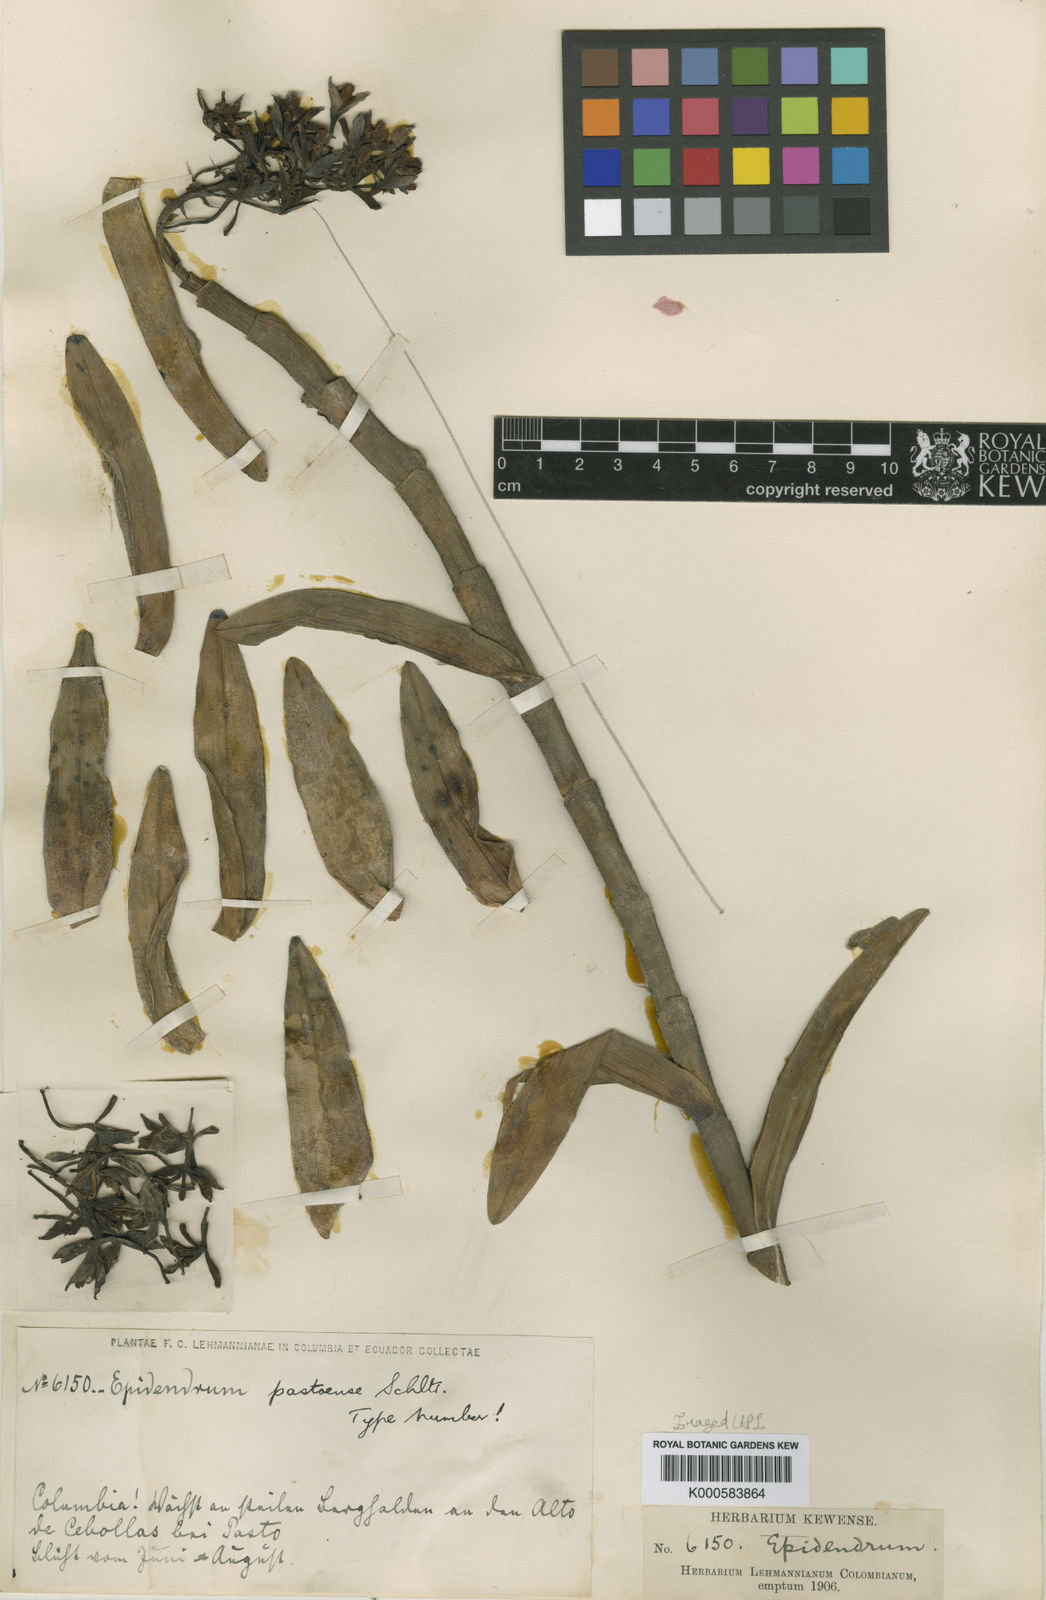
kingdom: Plantae
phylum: Tracheophyta
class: Liliopsida
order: Asparagales
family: Orchidaceae
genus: Epidendrum
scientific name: Epidendrum pastoense
